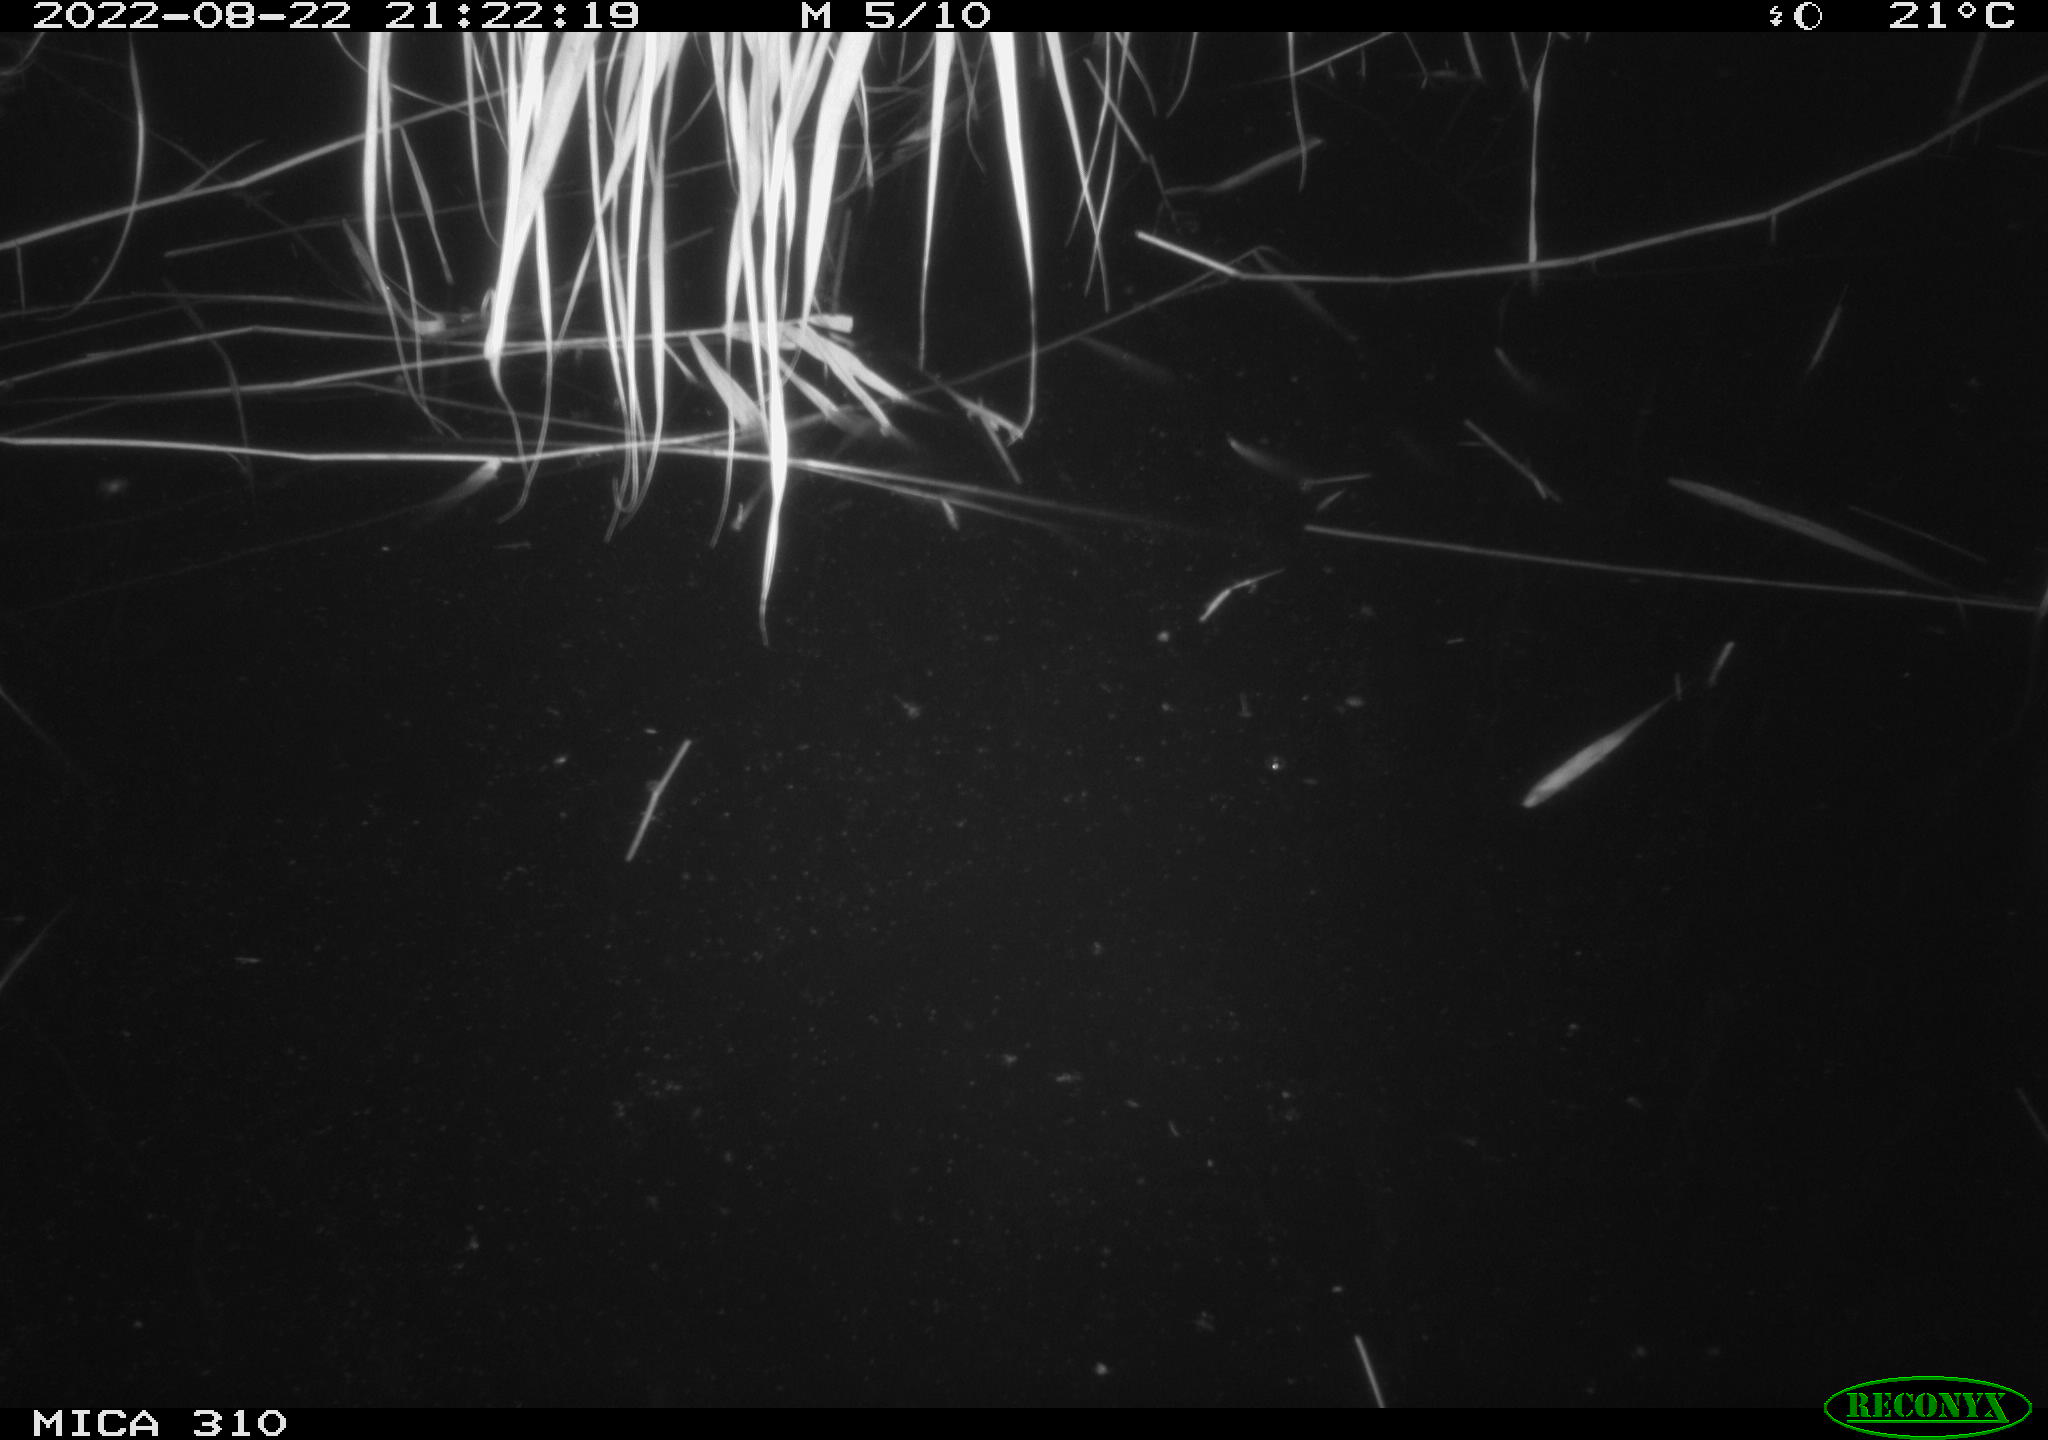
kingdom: Animalia
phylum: Chordata
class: Aves
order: Anseriformes
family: Anatidae
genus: Anas
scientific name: Anas platyrhynchos
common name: Mallard
